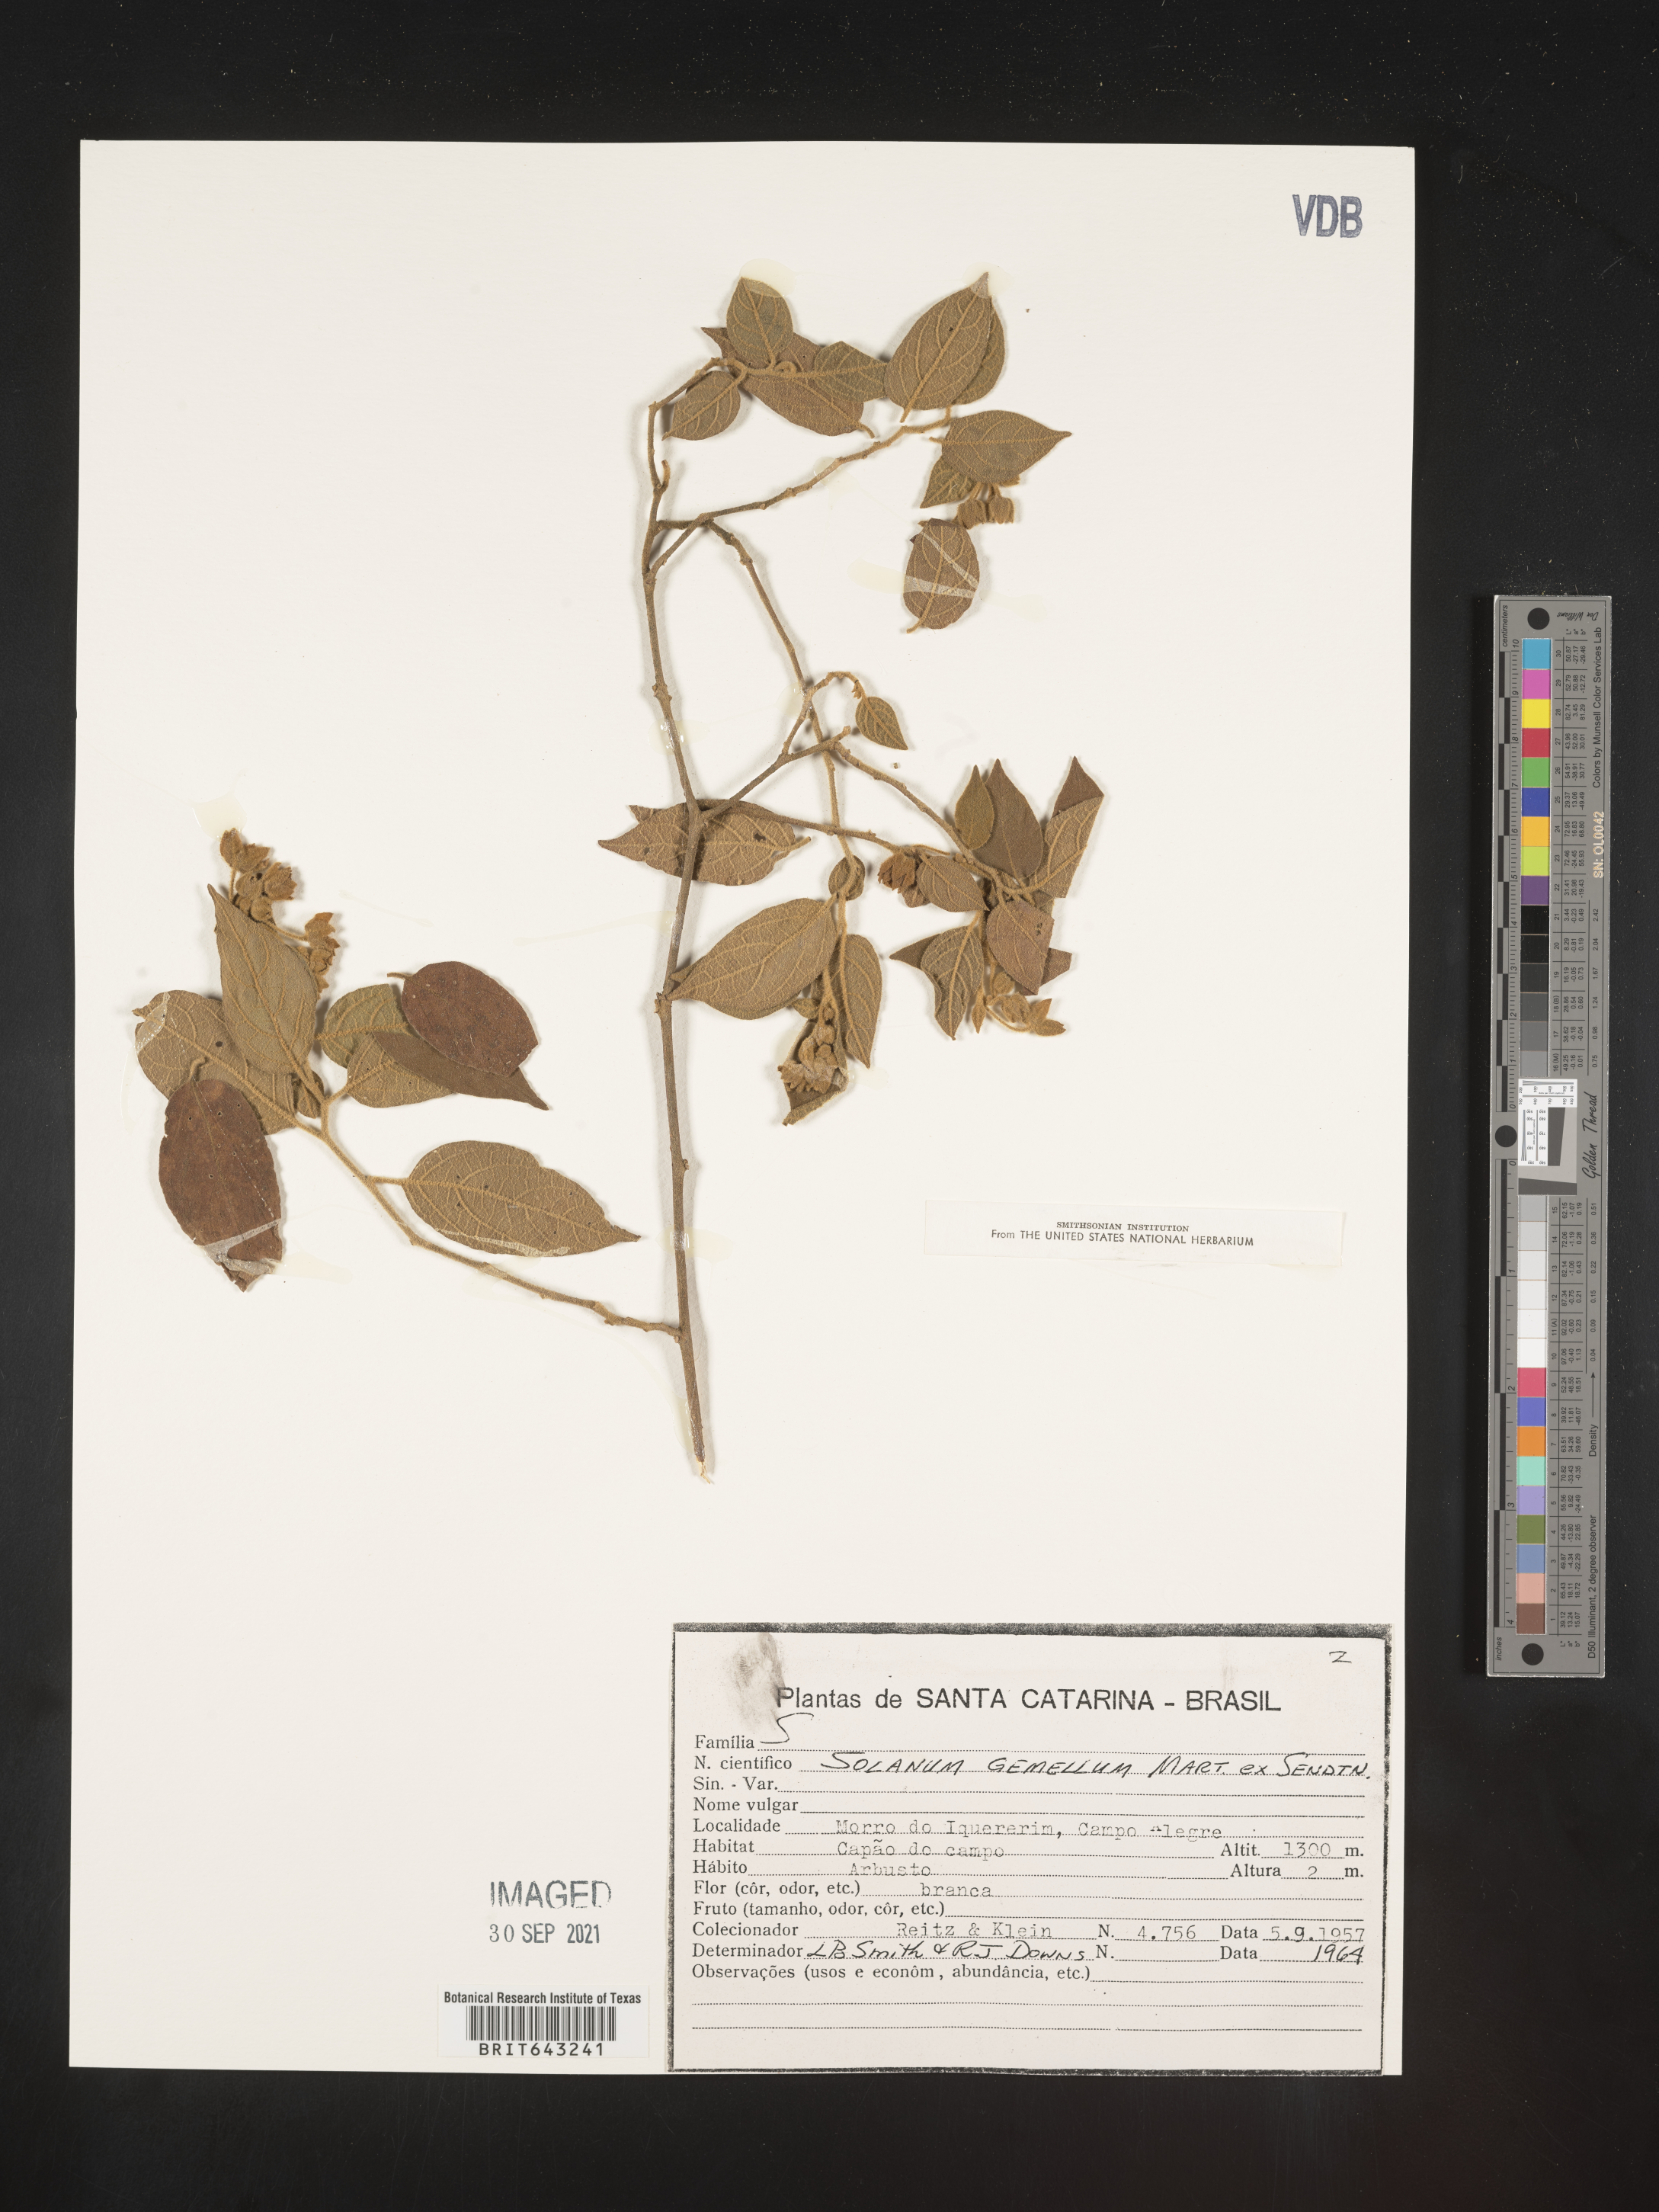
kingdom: Plantae
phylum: Tracheophyta
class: Magnoliopsida
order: Solanales
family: Solanaceae
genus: Solanum
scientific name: Solanum
